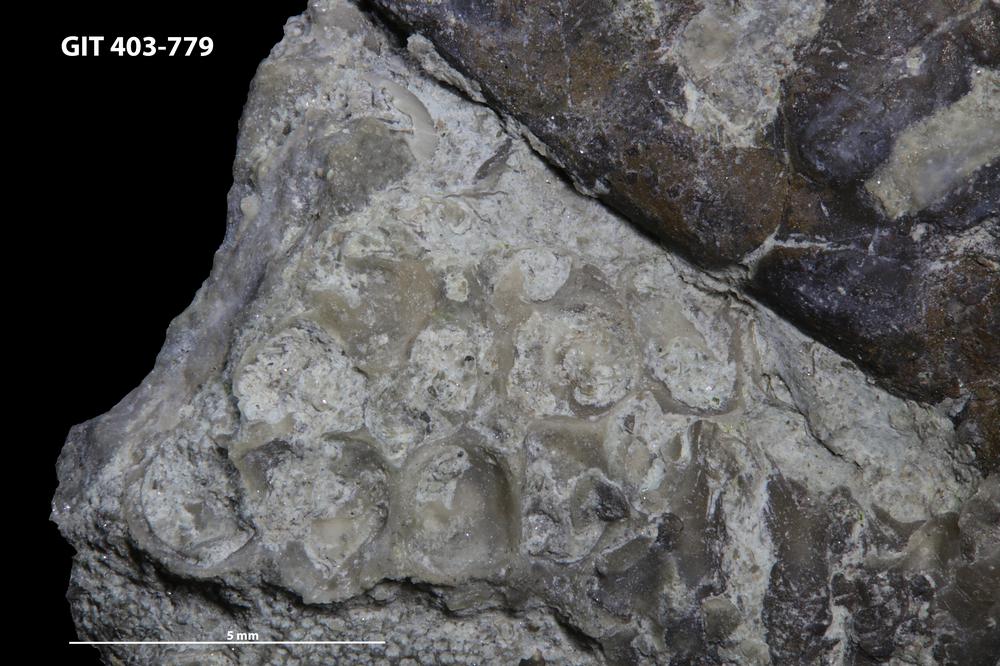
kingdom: Animalia
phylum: Cnidaria
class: Anthozoa
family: Favositidae
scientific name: Favositidae
